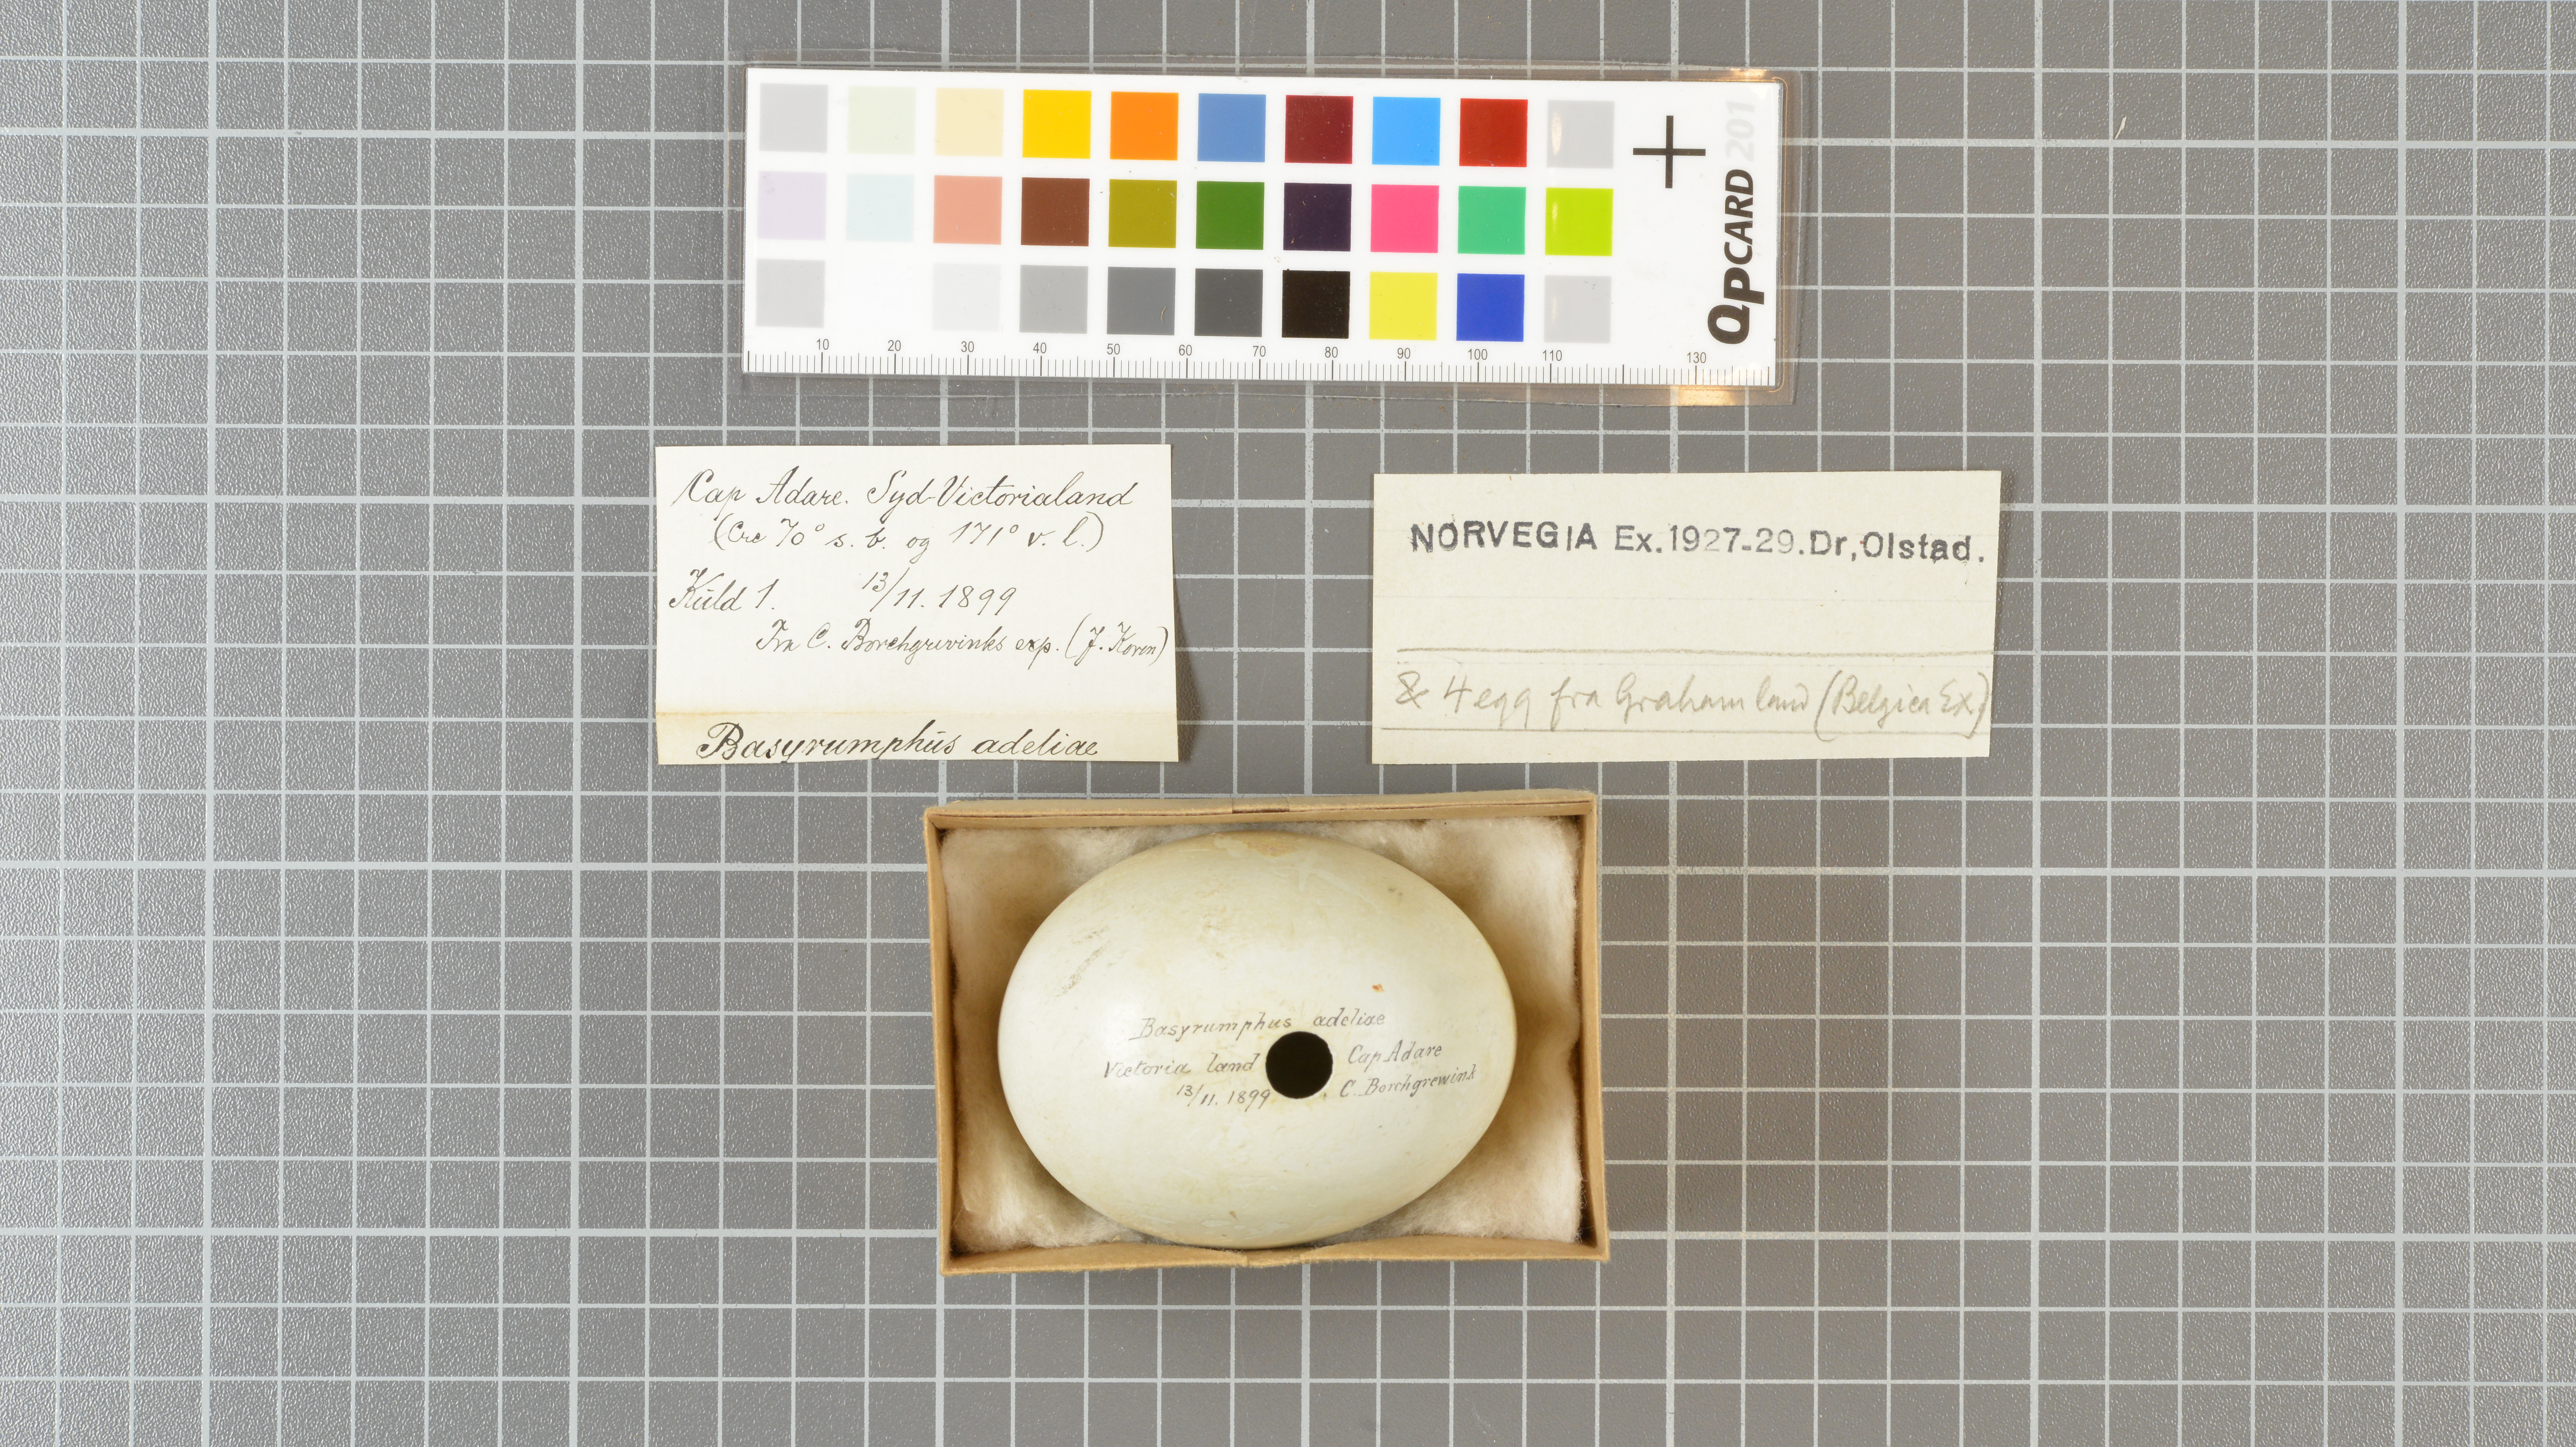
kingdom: Animalia
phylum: Chordata
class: Aves
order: Sphenisciformes
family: Spheniscidae
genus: Pygoscelis
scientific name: Pygoscelis adeliae
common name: Adelie penguin
